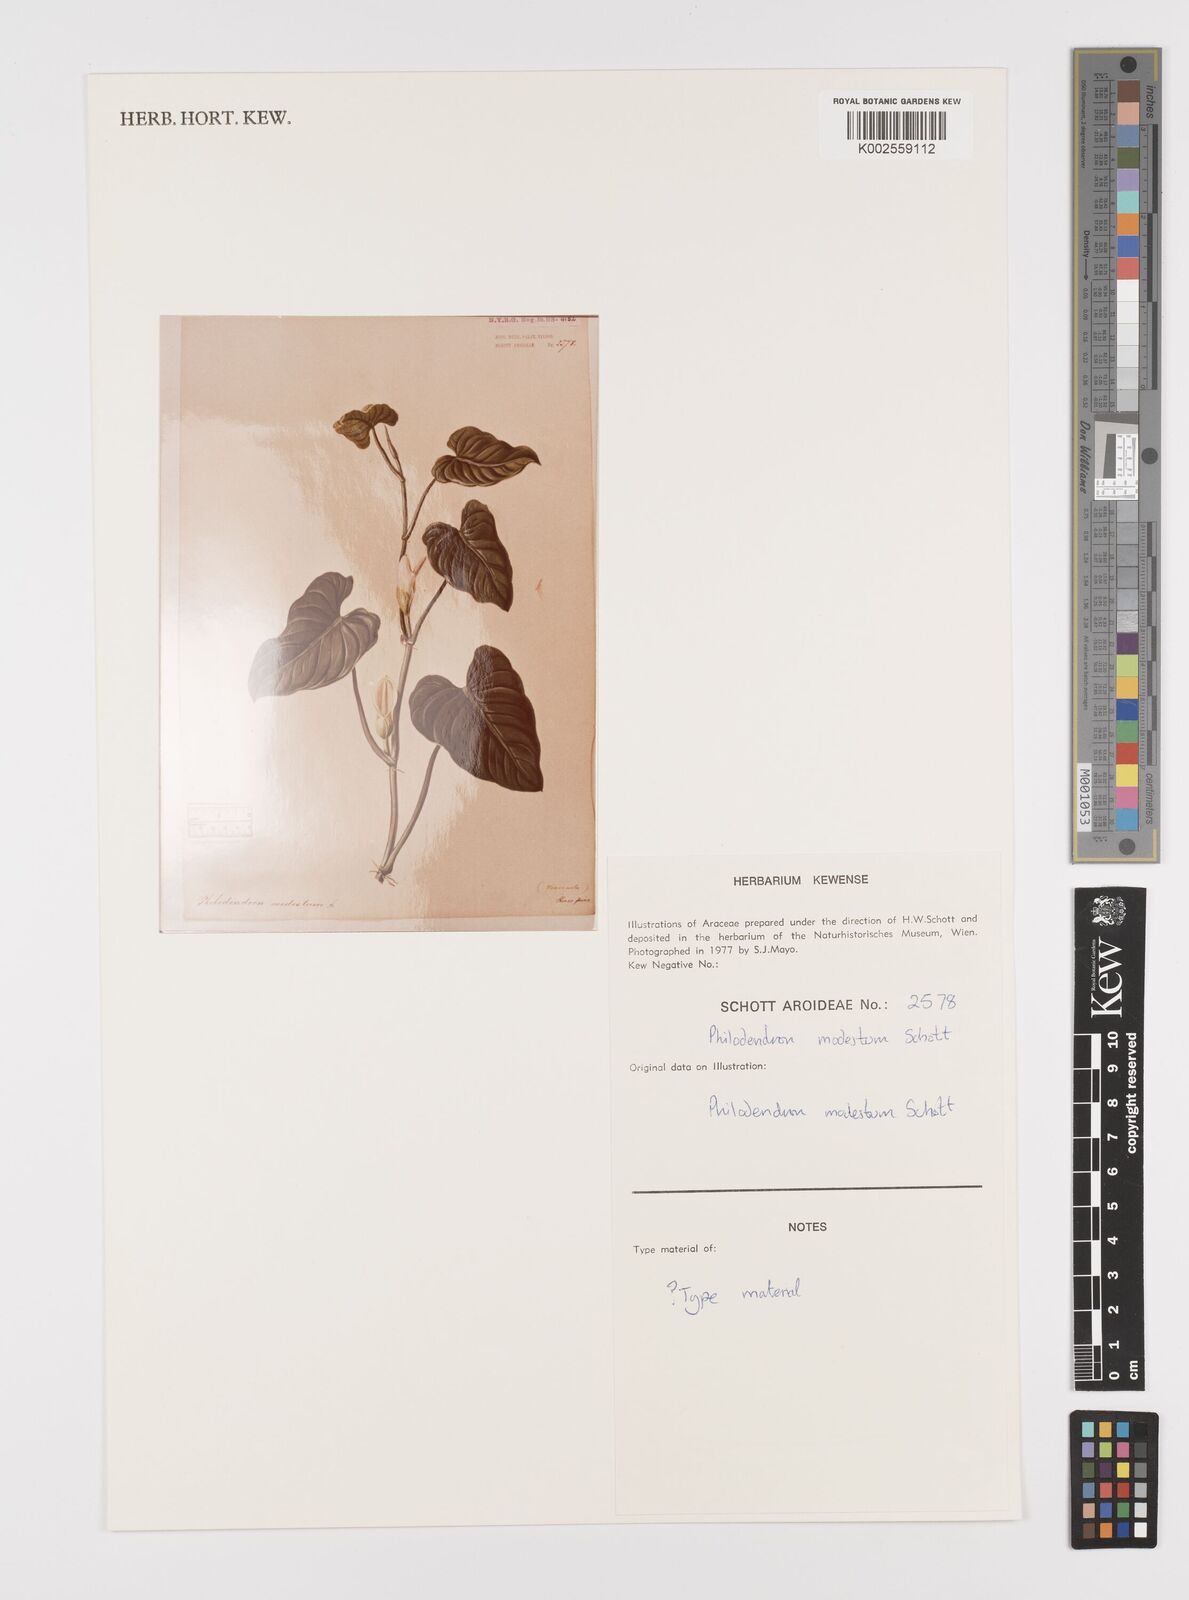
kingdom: Plantae
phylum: Tracheophyta
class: Liliopsida
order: Alismatales
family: Araceae
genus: Philodendron
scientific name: Philodendron modestum
